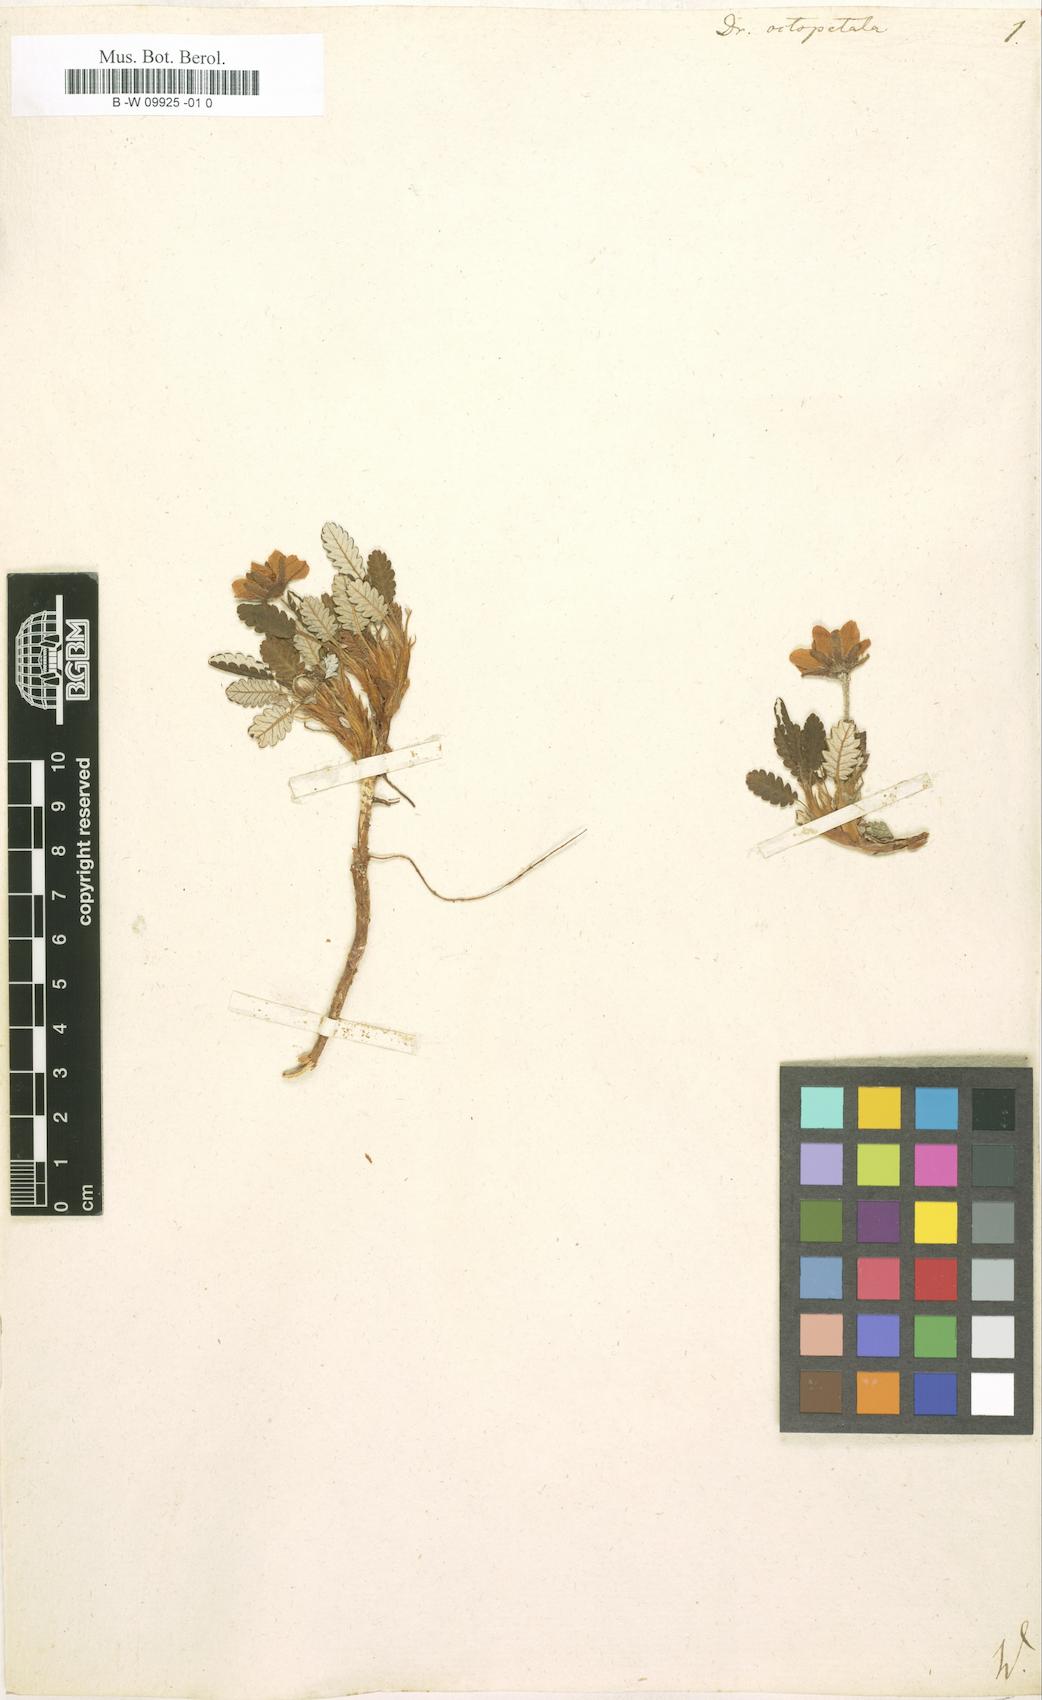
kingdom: Plantae
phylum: Tracheophyta
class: Magnoliopsida
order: Rosales
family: Rosaceae
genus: Dryas
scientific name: Dryas octopetala
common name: Eight-petal mountain-avens
